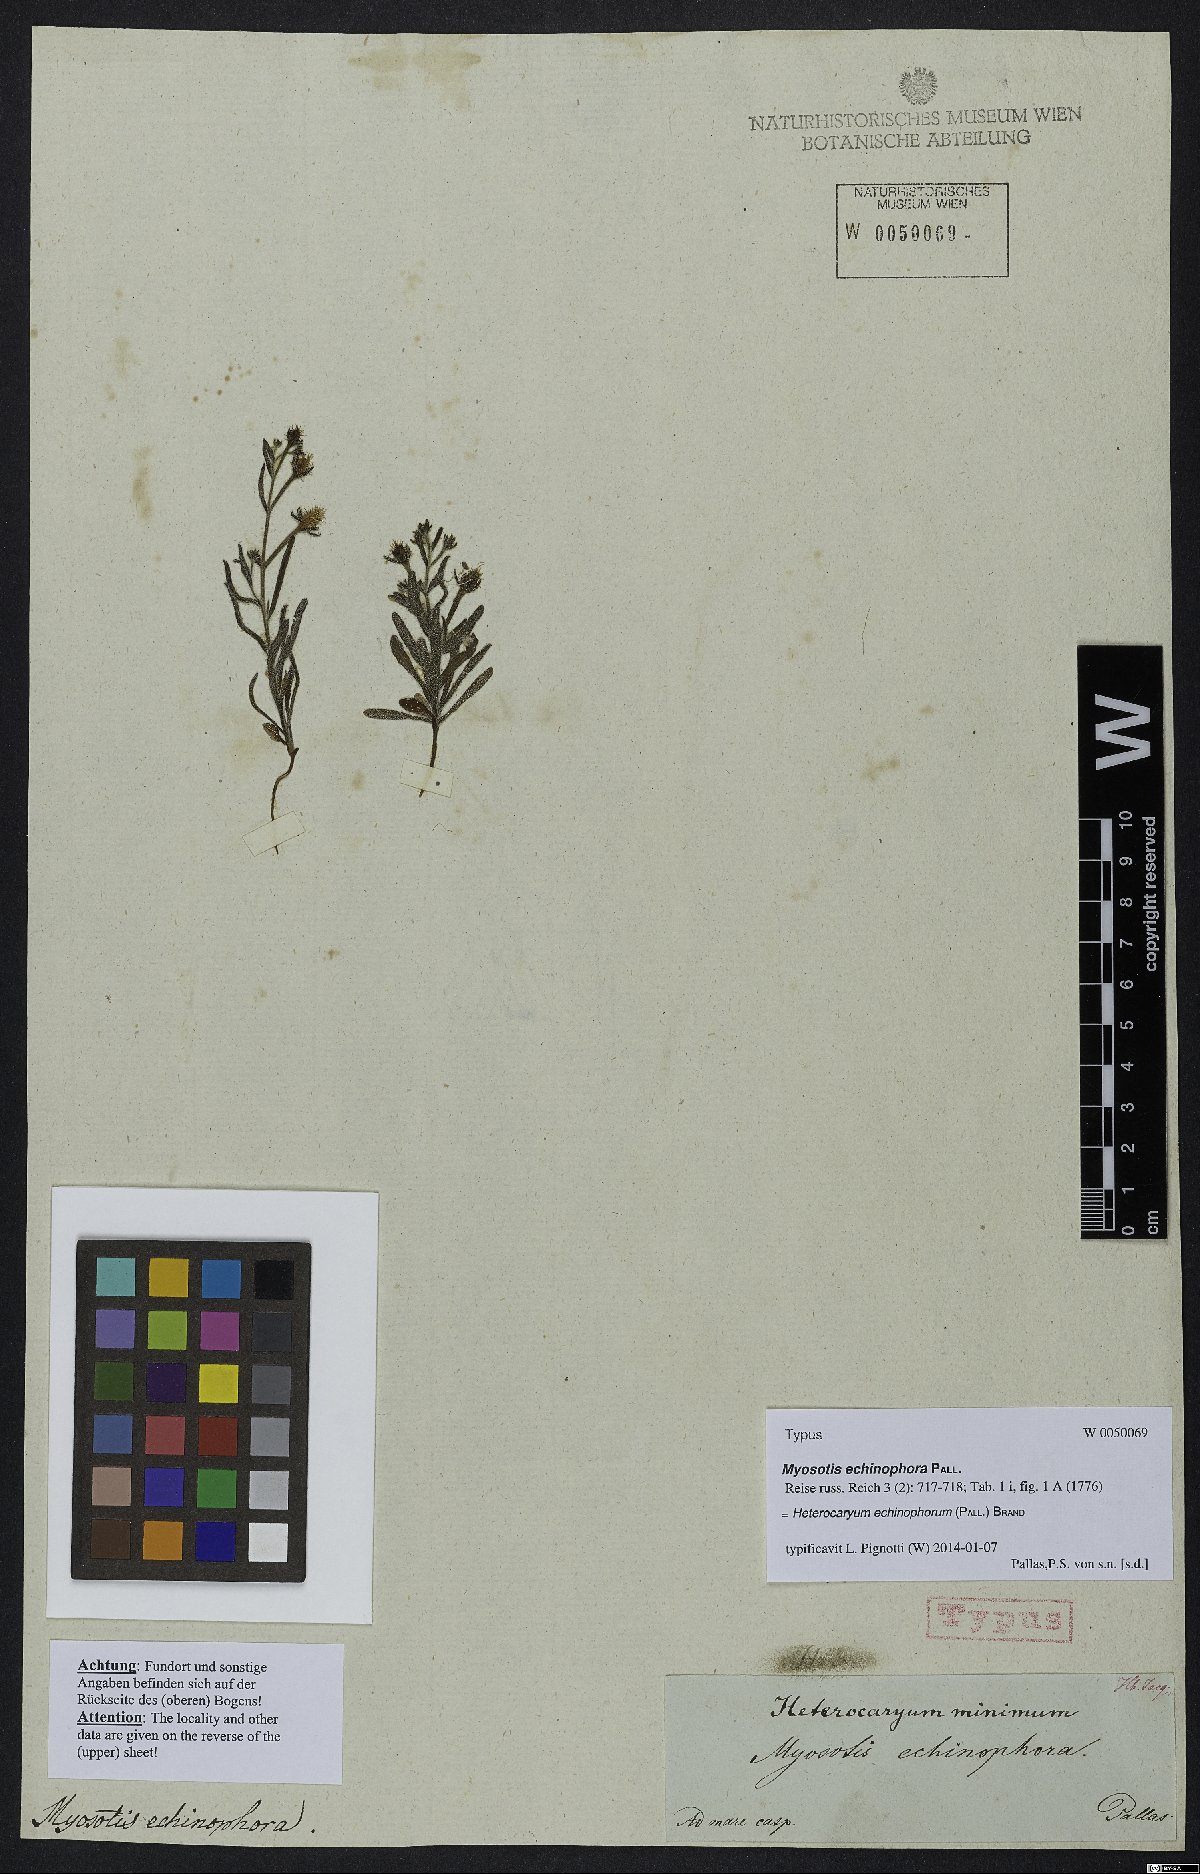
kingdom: Plantae
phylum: Tracheophyta
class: Magnoliopsida
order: Boraginales
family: Boraginaceae
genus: Heterocaryum
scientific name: Heterocaryum echinophorum
